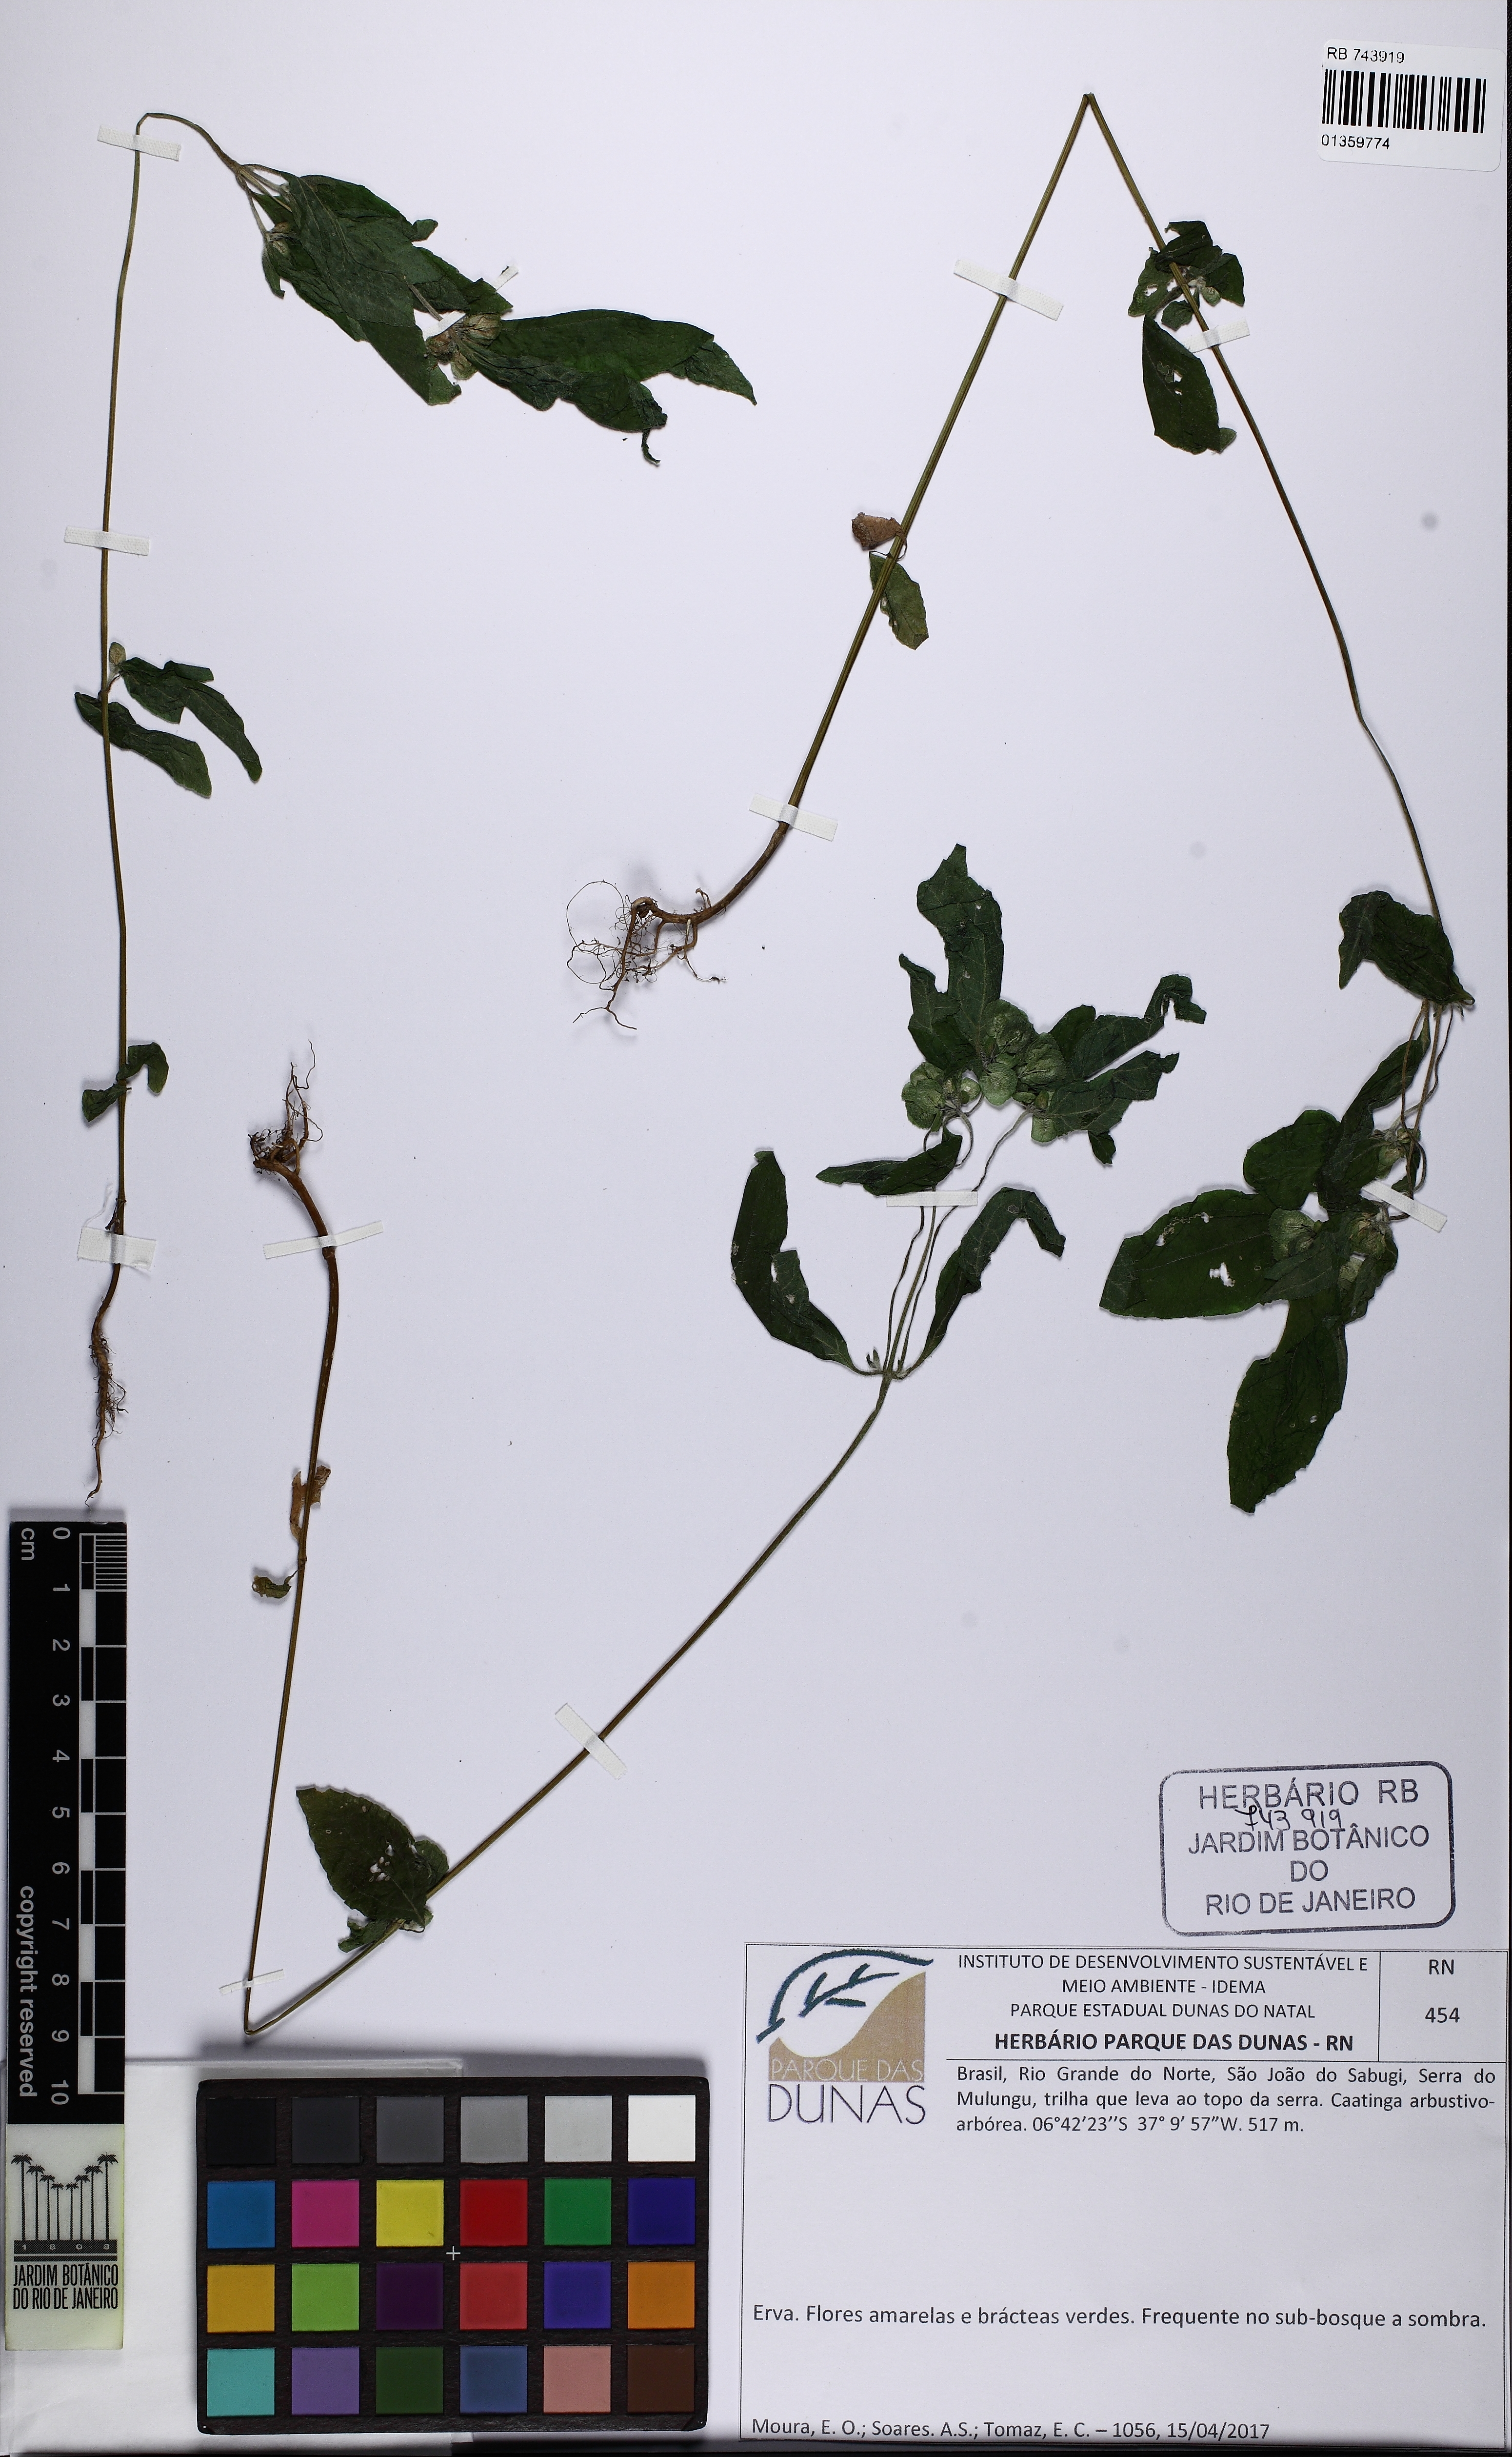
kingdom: Plantae
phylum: Tracheophyta
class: Magnoliopsida
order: Asterales
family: Asteraceae
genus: Delilia
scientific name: Delilia biflora
